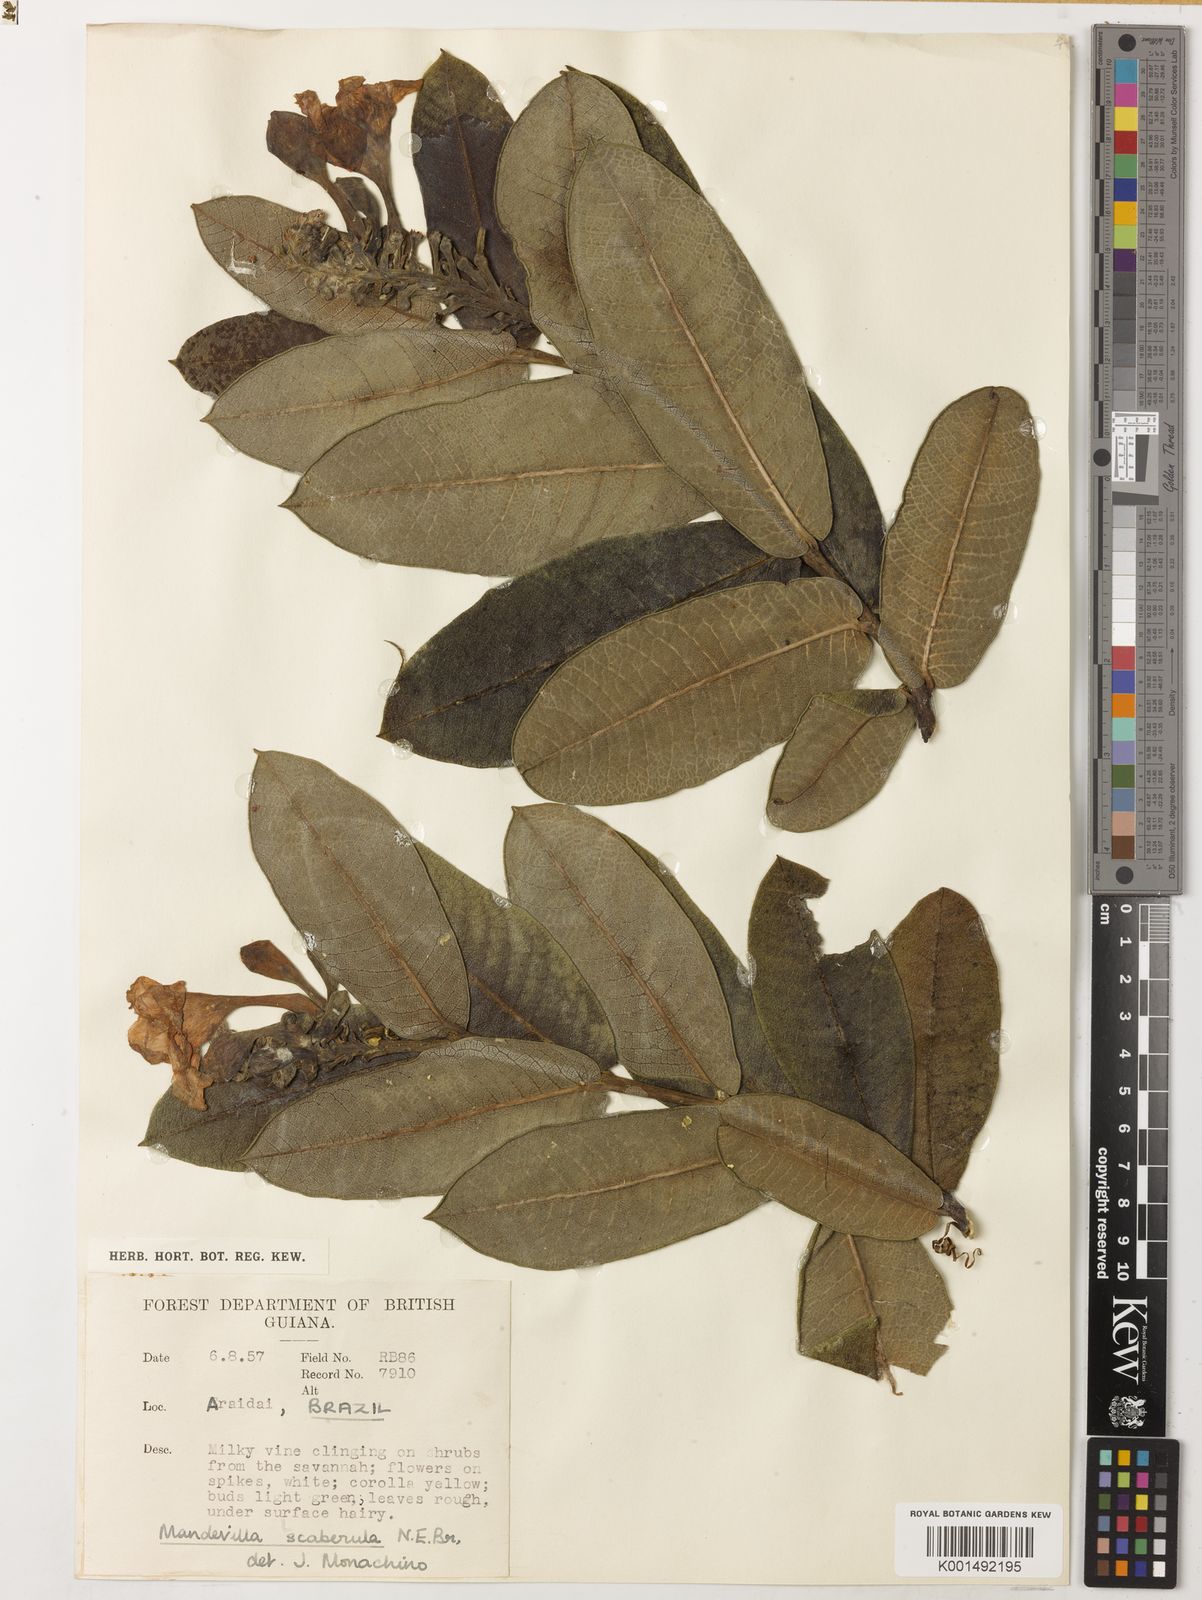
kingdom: Plantae
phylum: Tracheophyta
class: Magnoliopsida
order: Gentianales
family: Apocynaceae
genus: Mandevilla
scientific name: Mandevilla scaberula
